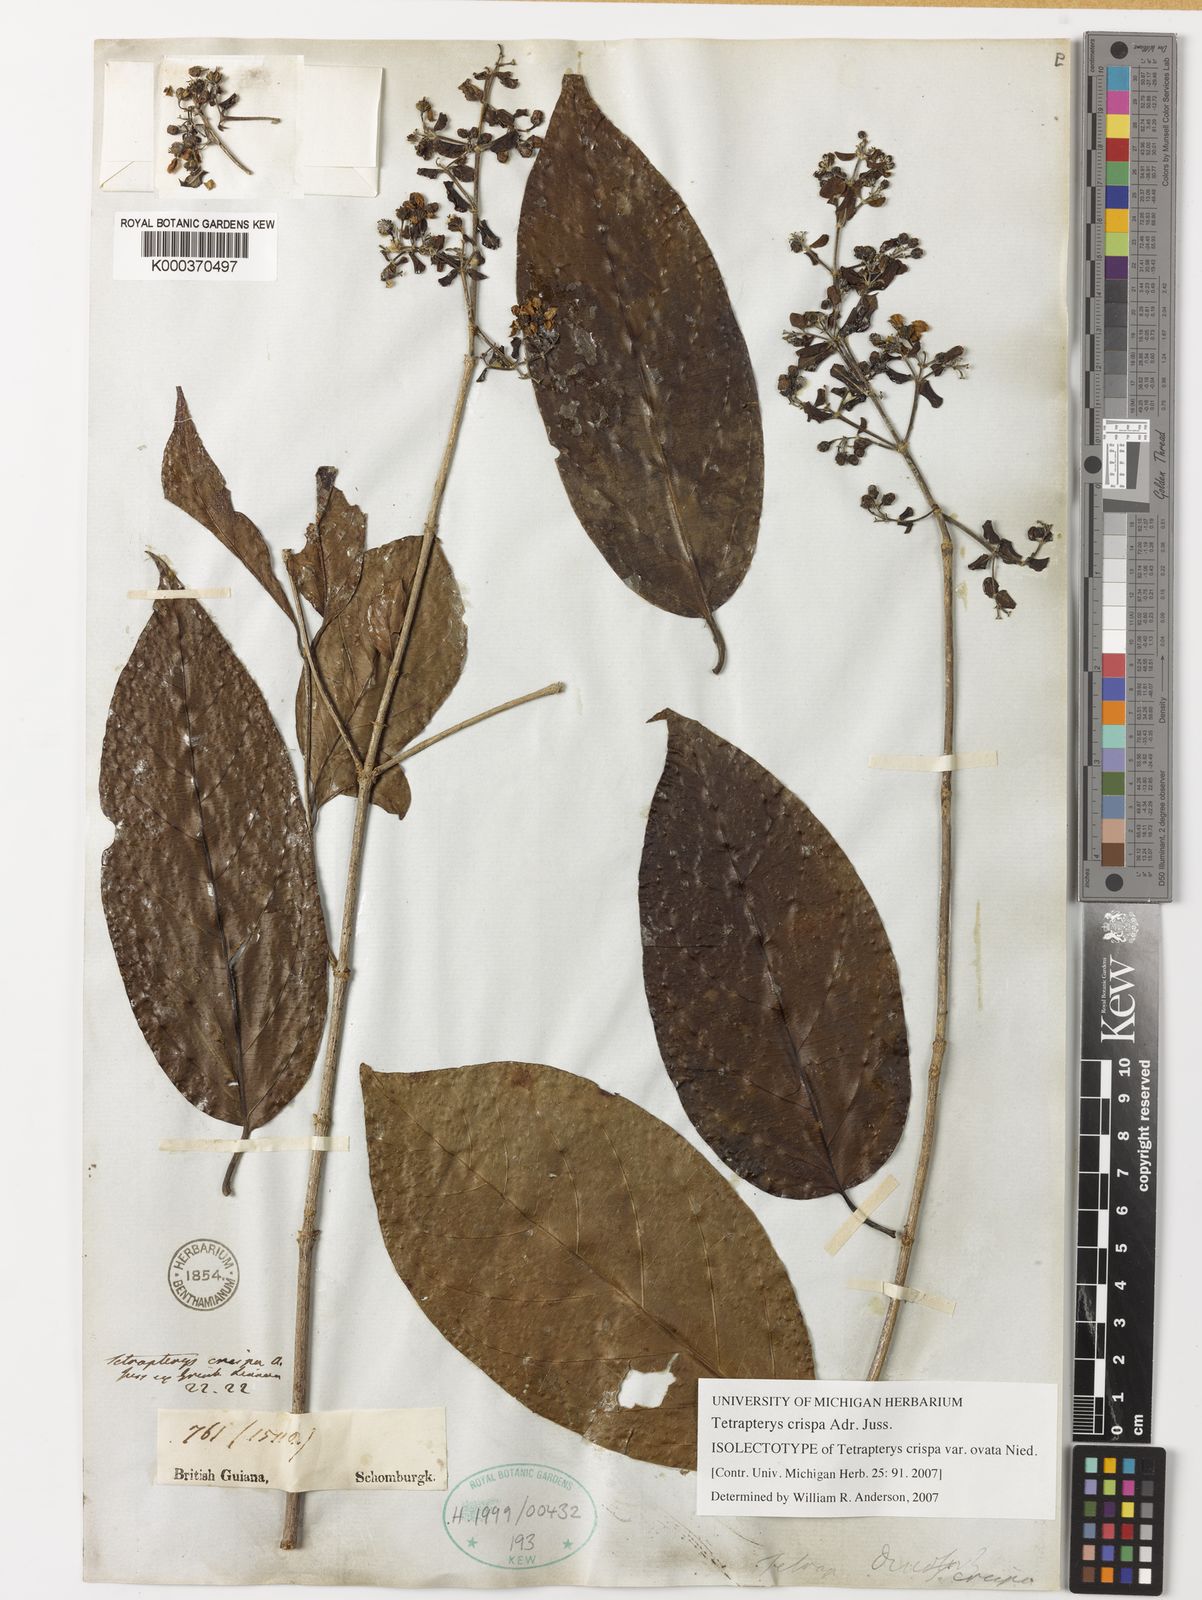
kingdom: Plantae
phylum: Tracheophyta
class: Magnoliopsida
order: Malpighiales
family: Malpighiaceae
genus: Tetrapterys
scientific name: Tetrapterys crispa
